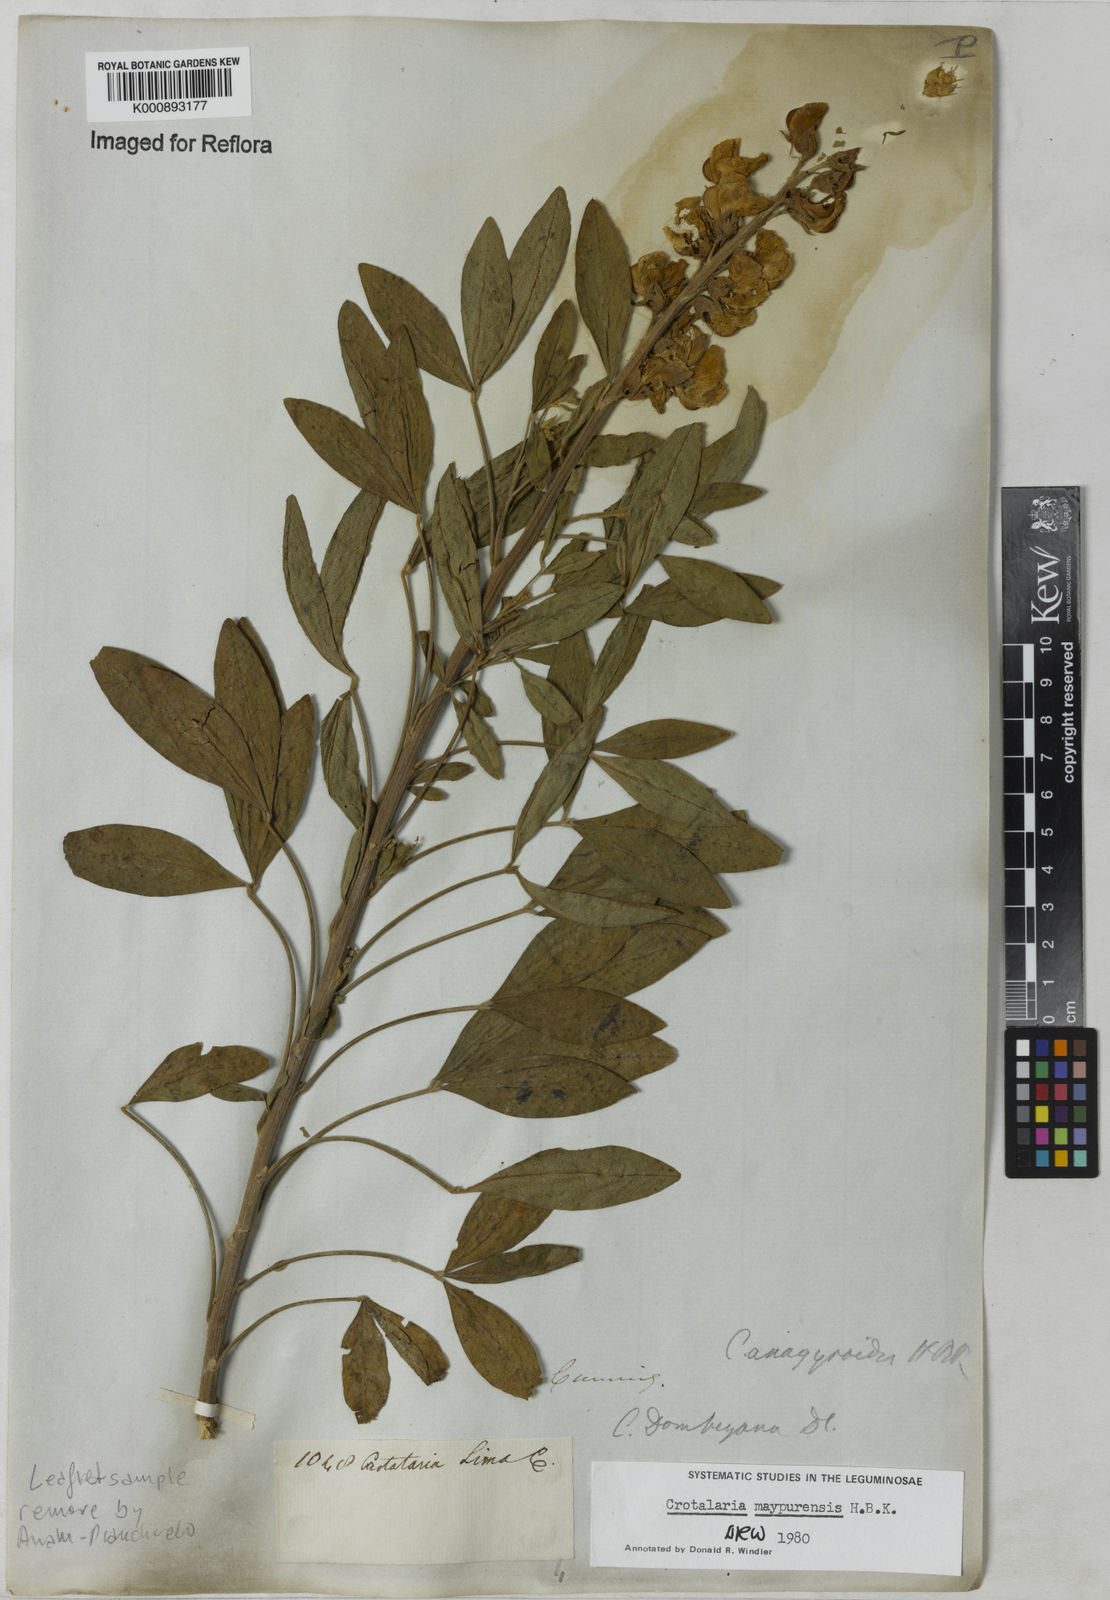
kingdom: Plantae
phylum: Tracheophyta
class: Magnoliopsida
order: Fabales
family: Fabaceae
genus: Crotalaria
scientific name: Crotalaria maypurensis
